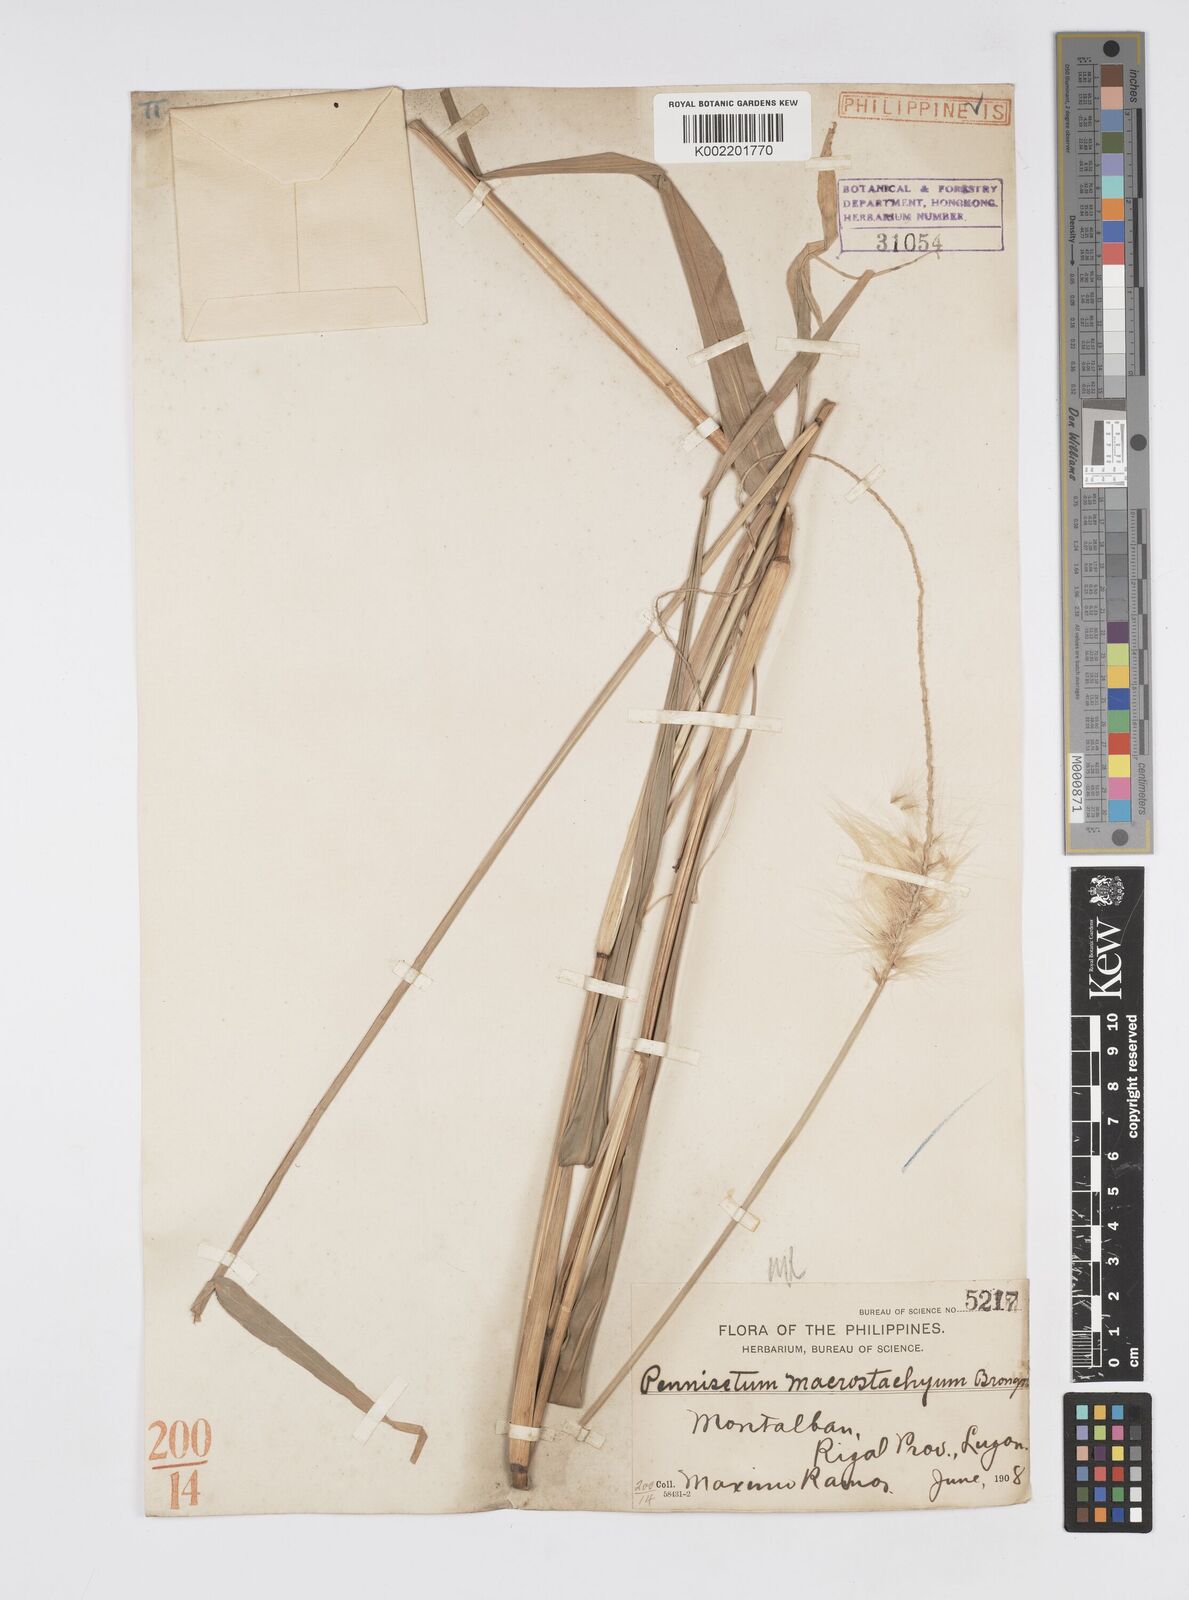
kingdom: Plantae
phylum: Tracheophyta
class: Liliopsida
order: Poales
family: Poaceae
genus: Cenchrus
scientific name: Cenchrus purpureus
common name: Elephant grass
